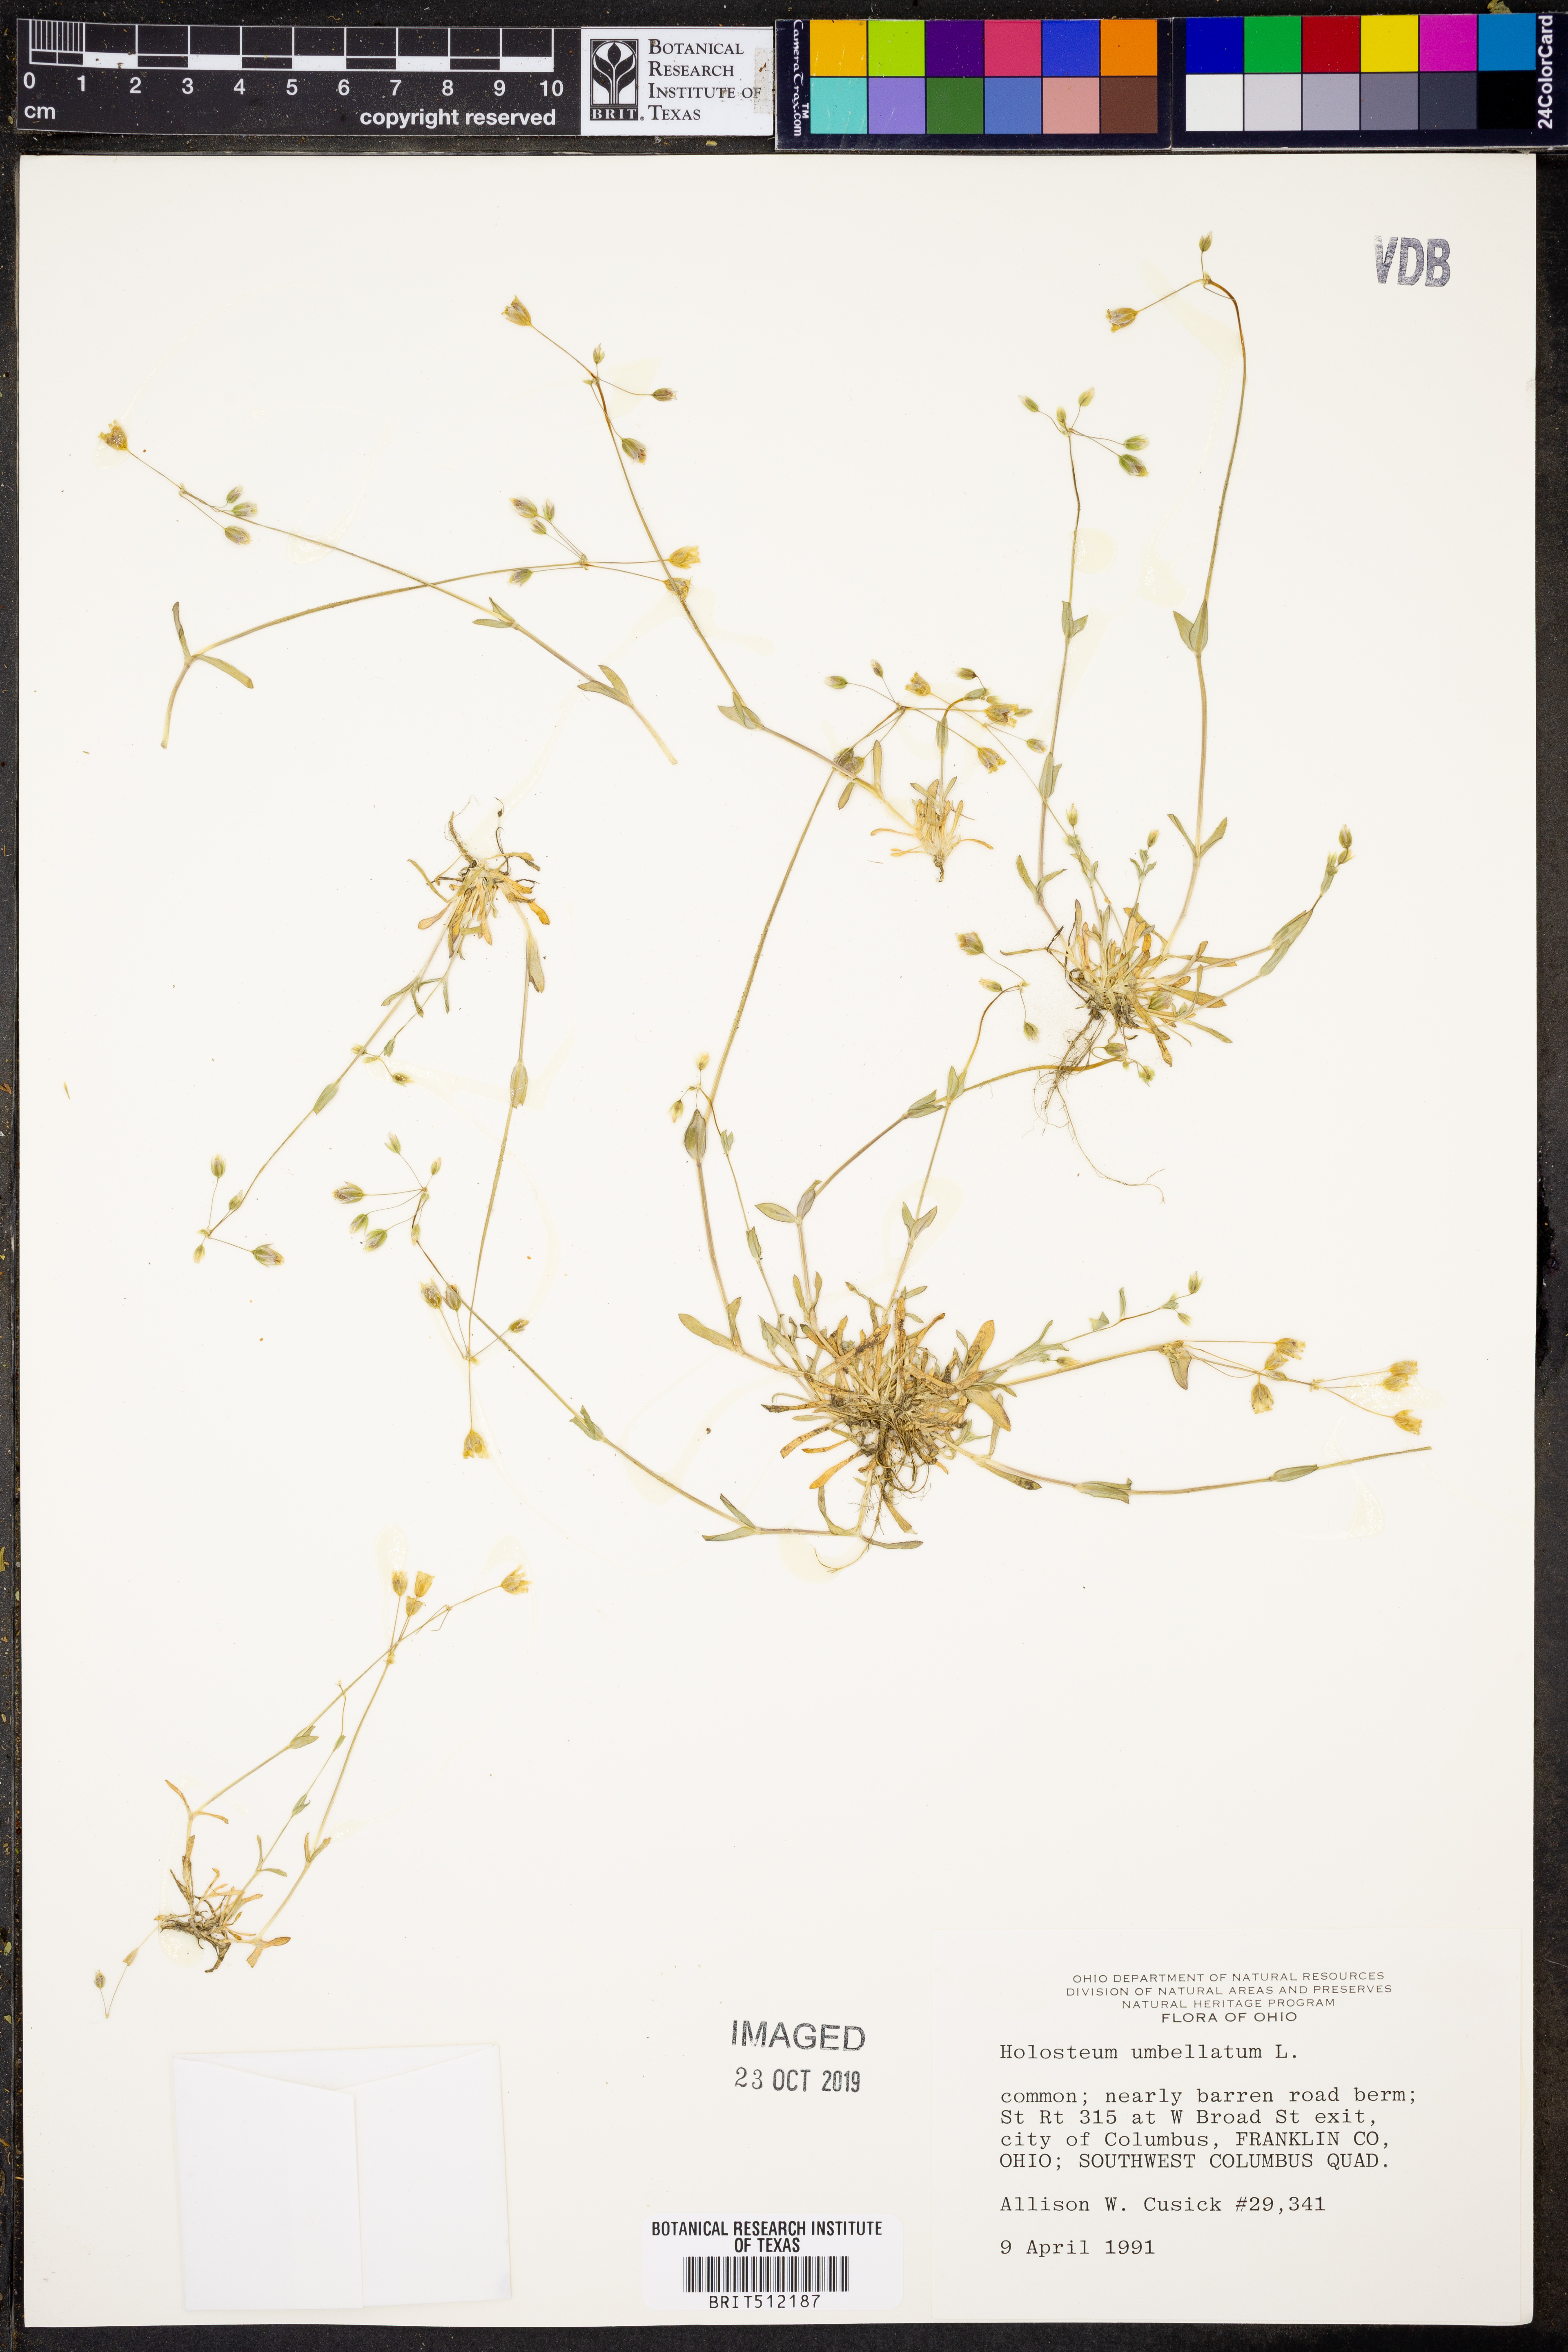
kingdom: Plantae
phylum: Tracheophyta
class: Magnoliopsida
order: Caryophyllales
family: Caryophyllaceae
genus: Holosteum
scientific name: Holosteum umbellatum
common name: Jagged chickweed
